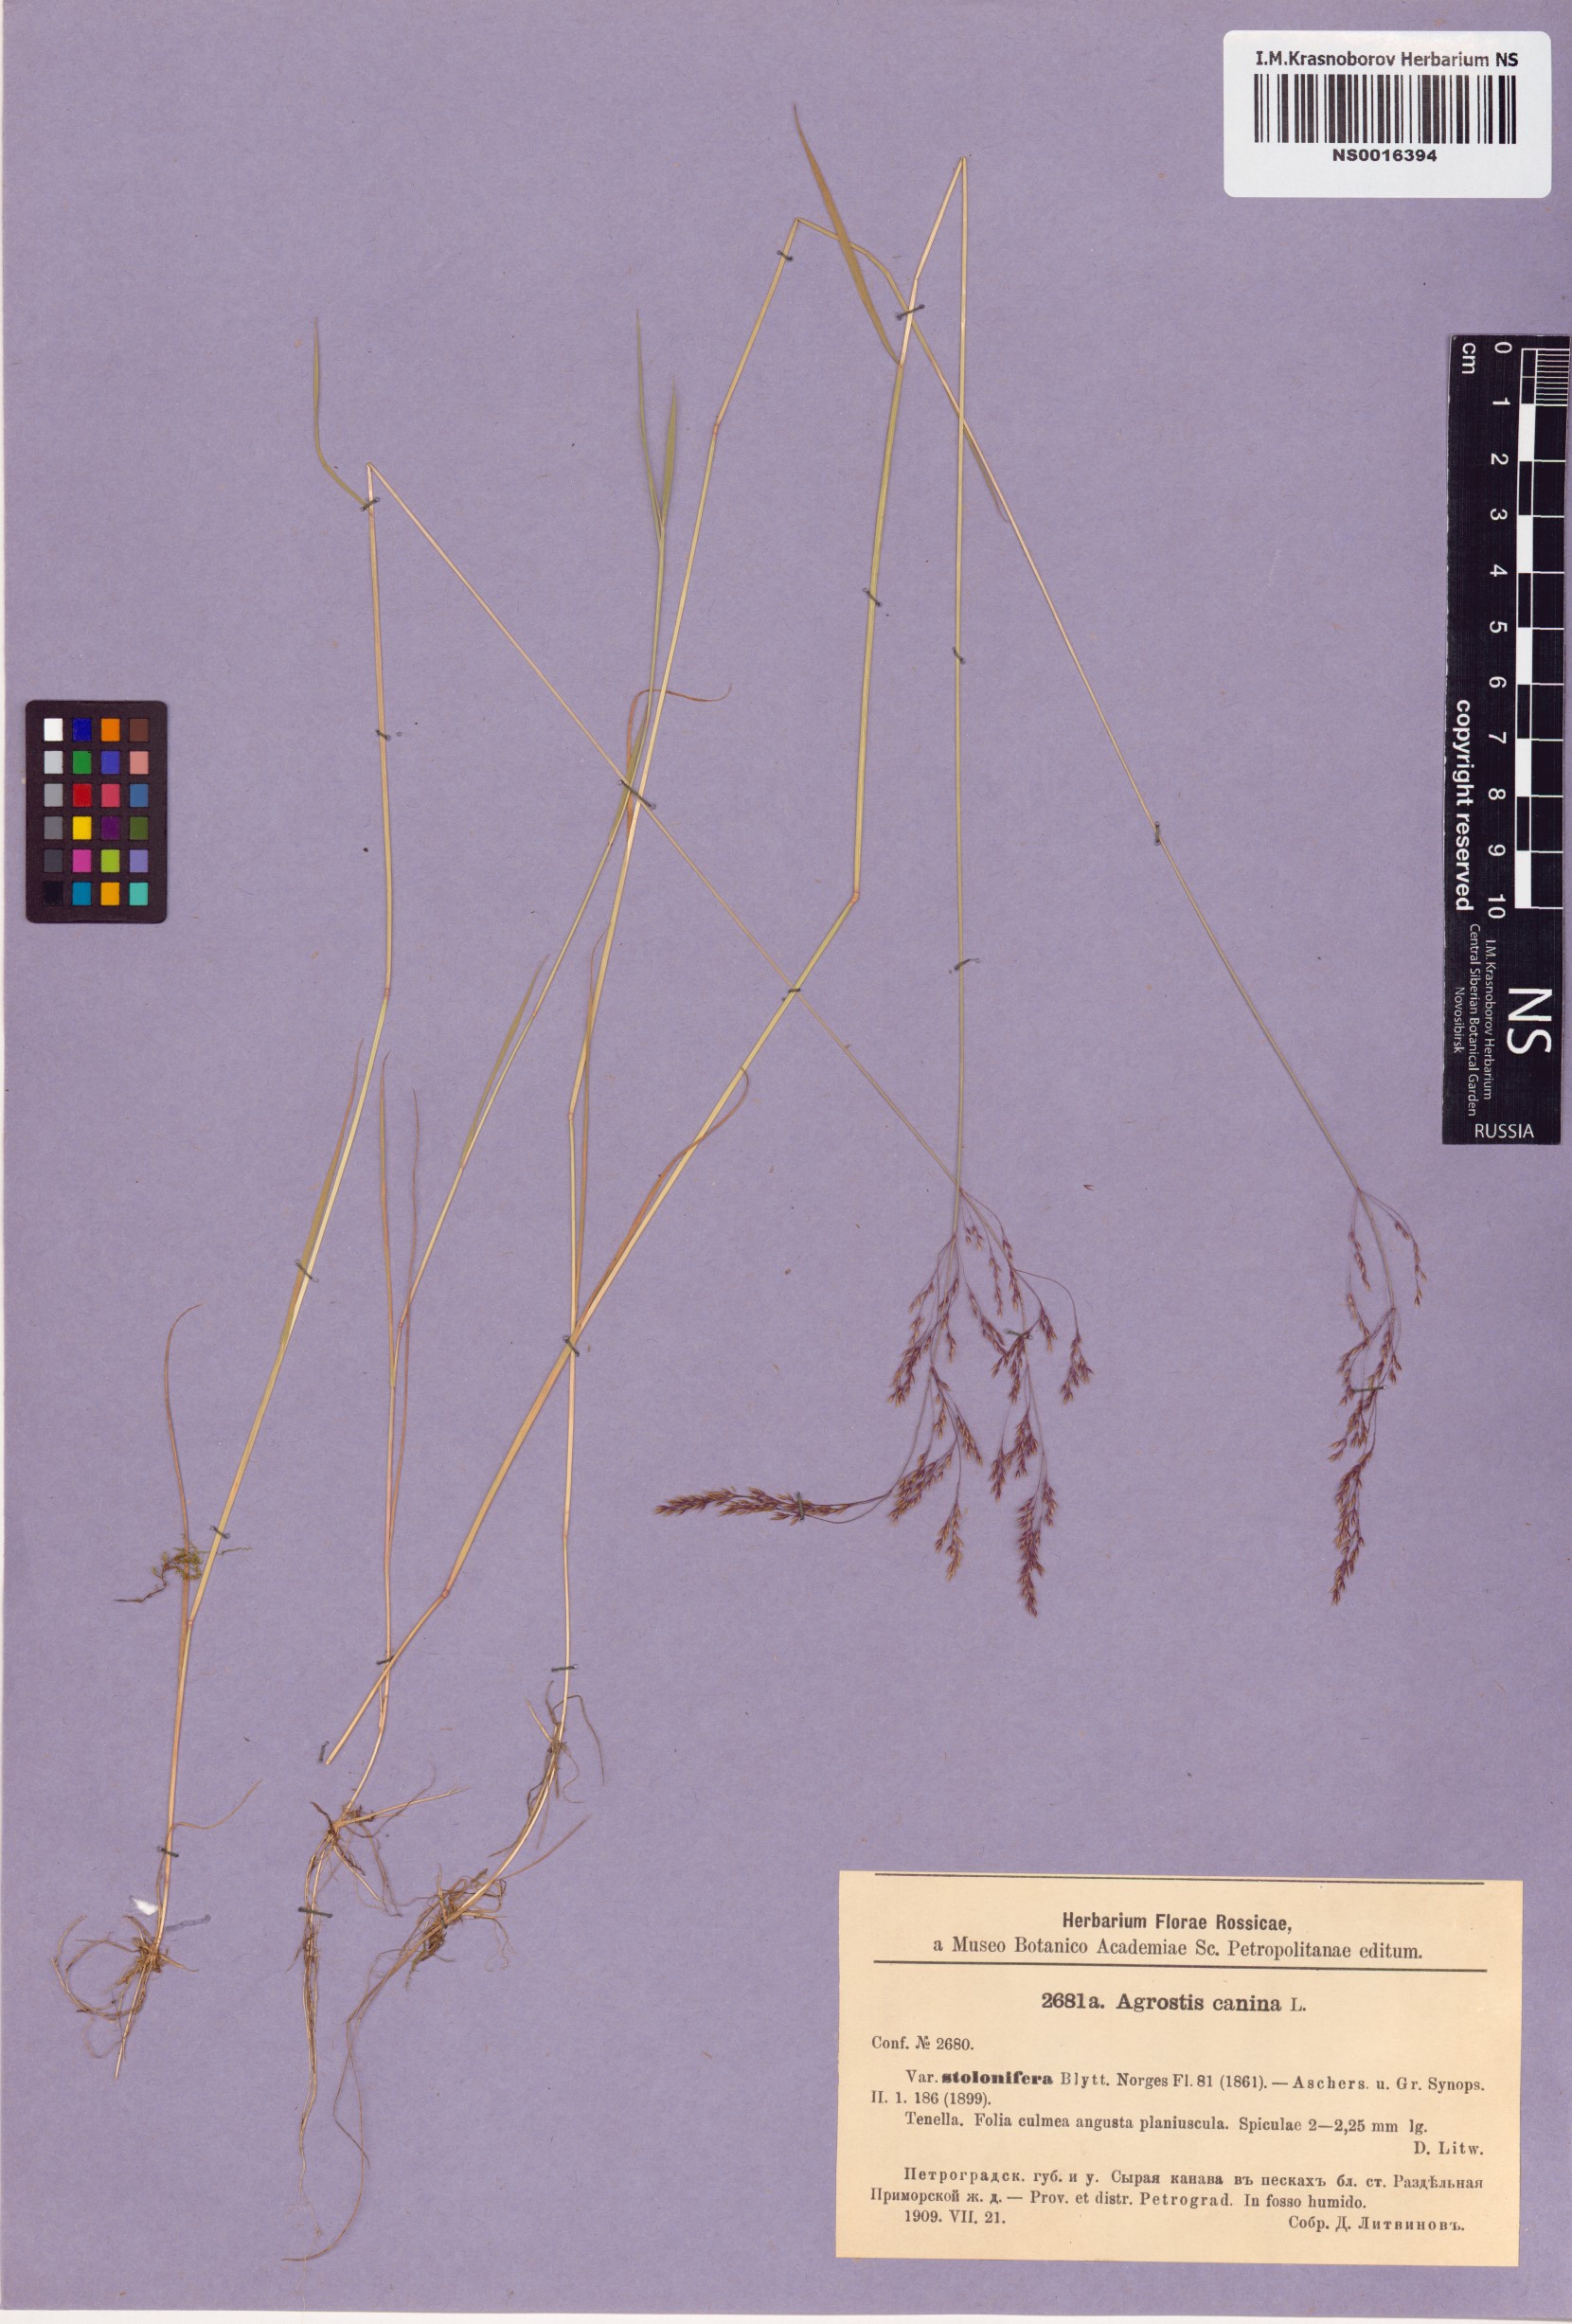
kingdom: Plantae
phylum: Tracheophyta
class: Liliopsida
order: Poales
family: Poaceae
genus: Agrostis
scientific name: Agrostis canina
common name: Velvet bent
